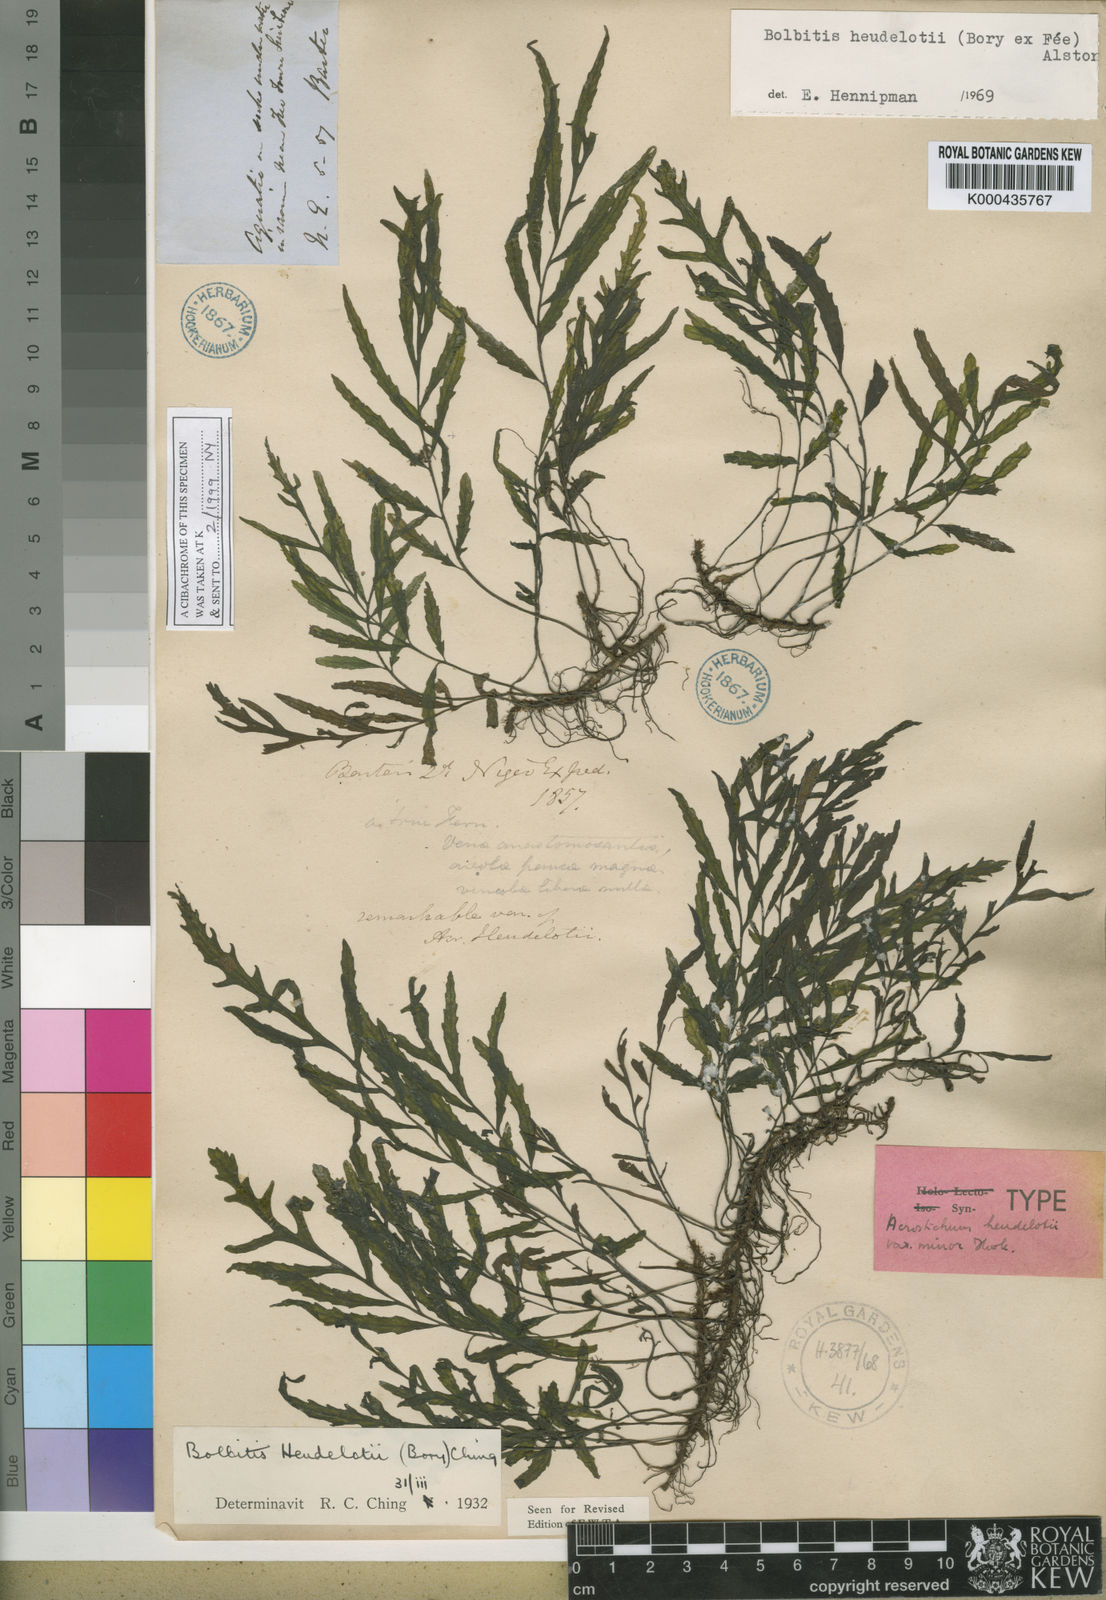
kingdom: Plantae
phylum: Tracheophyta
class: Polypodiopsida
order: Polypodiales
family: Dryopteridaceae
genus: Bolbitis
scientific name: Bolbitis heudelotii
